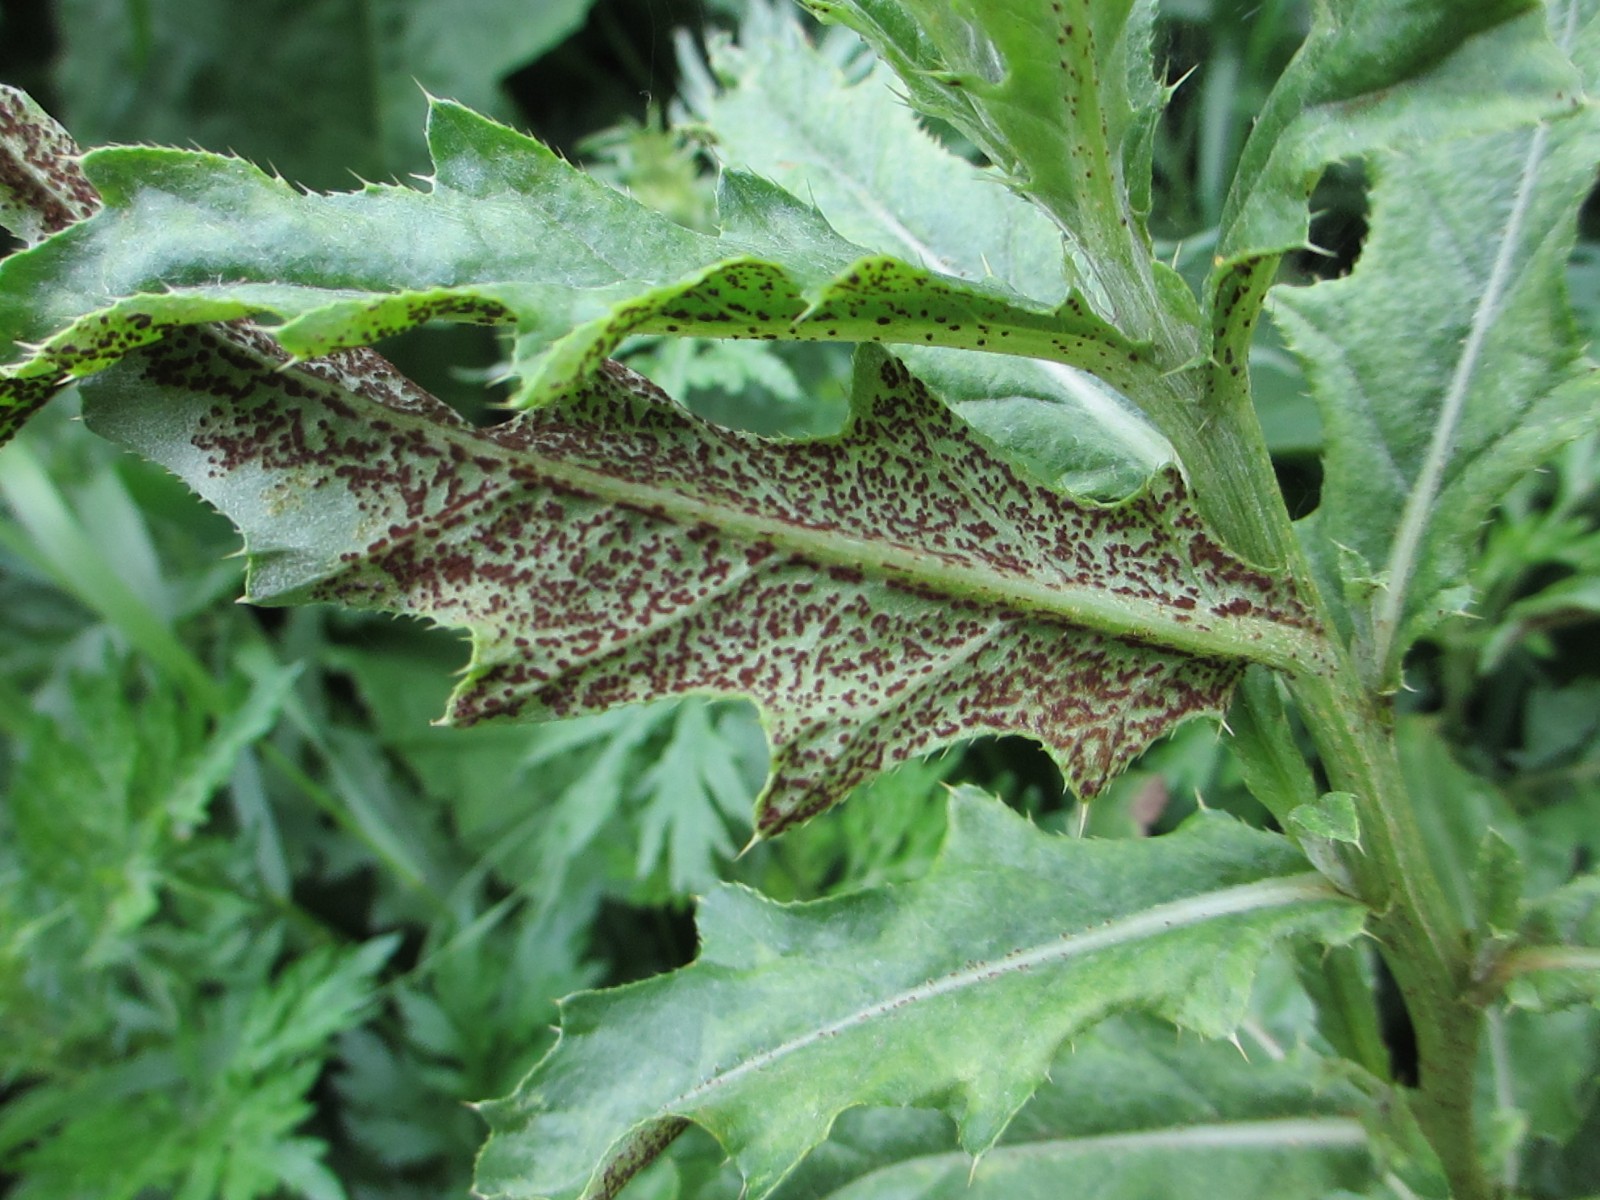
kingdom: Fungi
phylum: Basidiomycota
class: Pucciniomycetes
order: Pucciniales
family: Pucciniaceae
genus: Puccinia
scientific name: Puccinia suaveolens
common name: tidsel-tvecellerust
